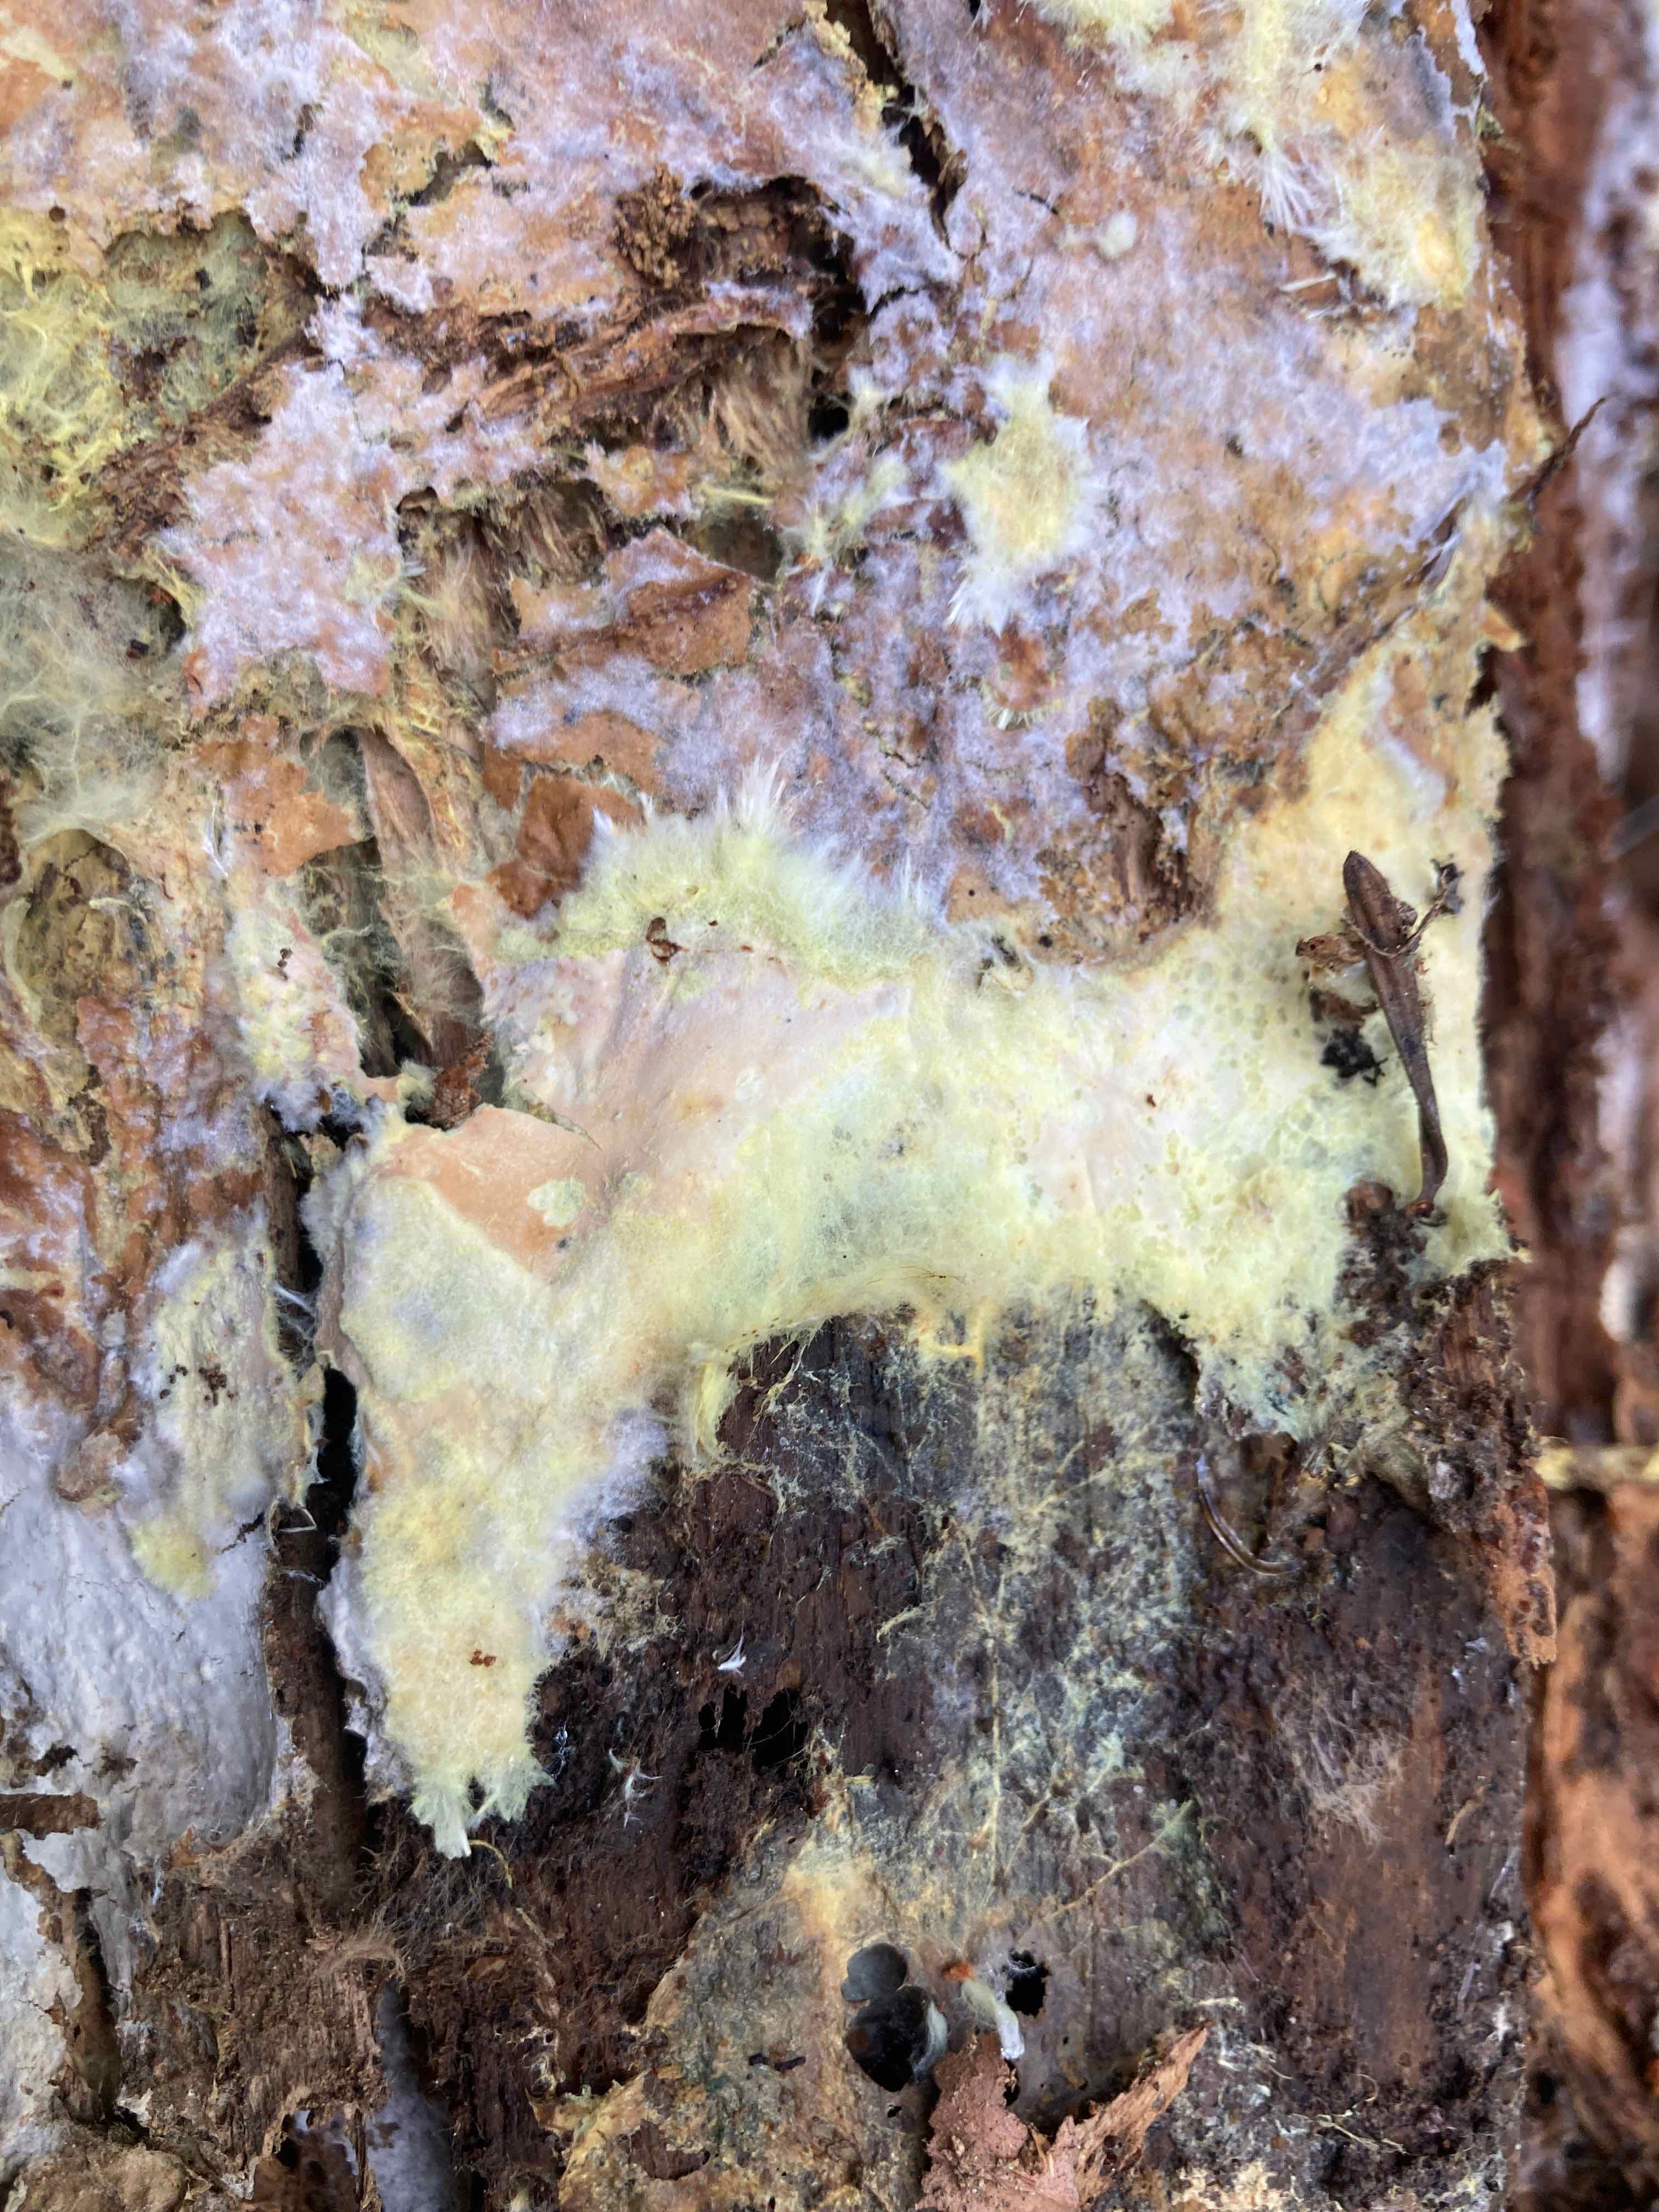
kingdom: Fungi
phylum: Basidiomycota
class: Agaricomycetes
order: Russulales
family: Xenasmataceae
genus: Xenasmatella
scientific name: Xenasmatella vaga
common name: svovl-strenghinde
